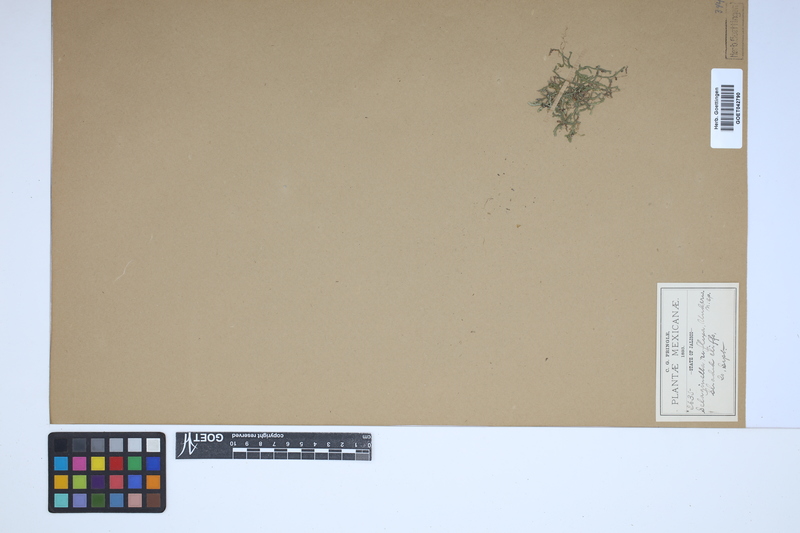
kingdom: Plantae
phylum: Tracheophyta
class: Lycopodiopsida
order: Selaginellales
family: Selaginellaceae
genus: Selaginella
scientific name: Selaginella reflexa
